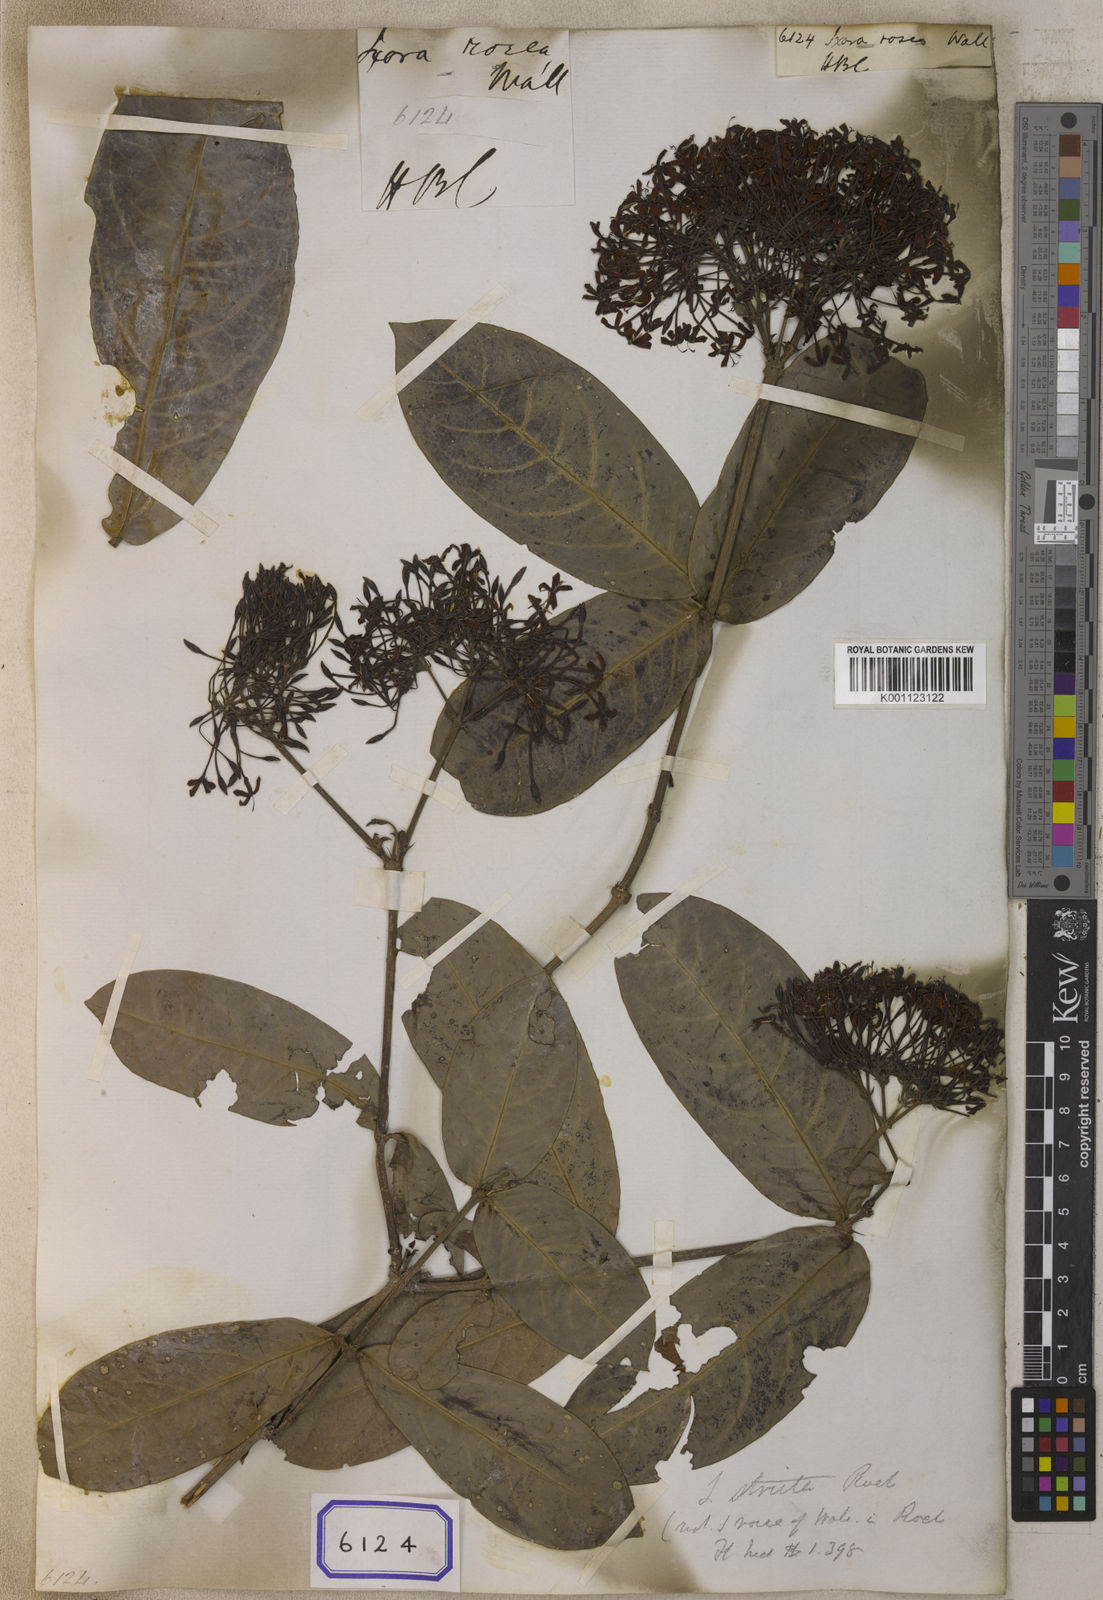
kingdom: Plantae
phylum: Tracheophyta
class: Magnoliopsida
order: Gentianales
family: Rubiaceae
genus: Ixora
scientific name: Ixora cuneifolia
